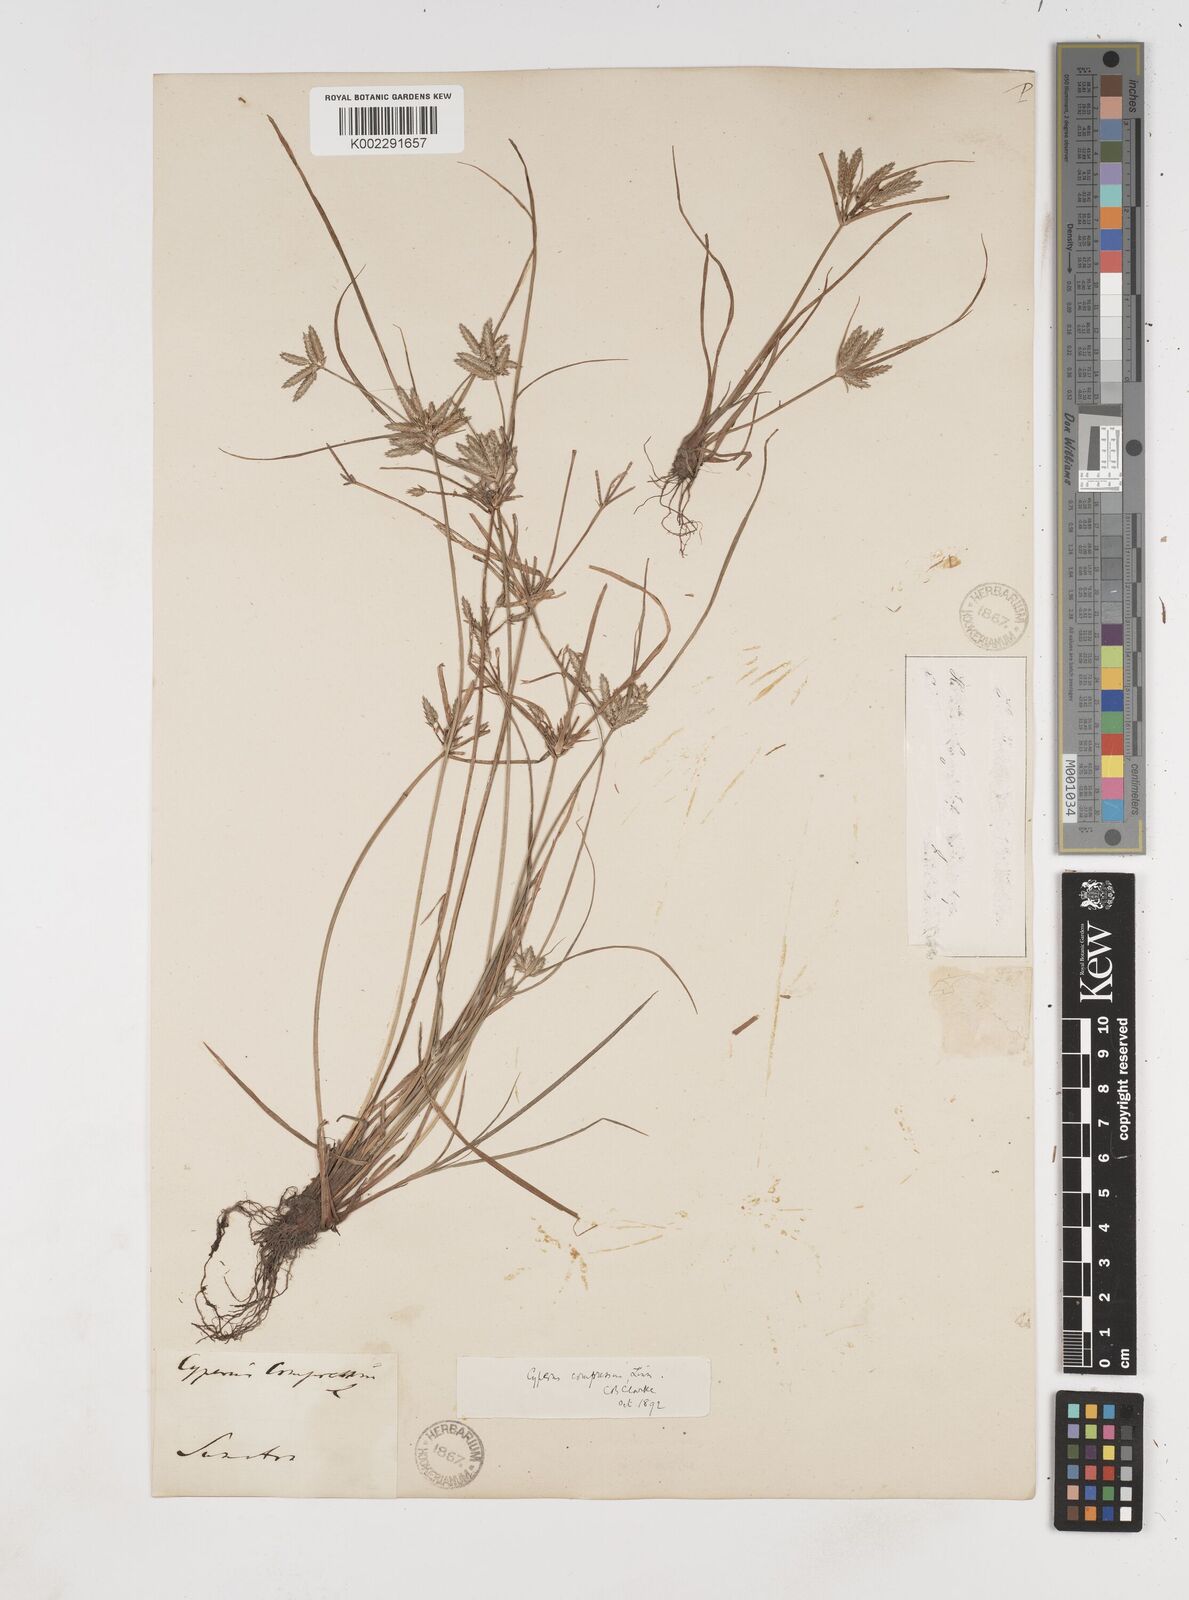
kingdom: Plantae
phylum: Tracheophyta
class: Liliopsida
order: Poales
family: Cyperaceae
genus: Cyperus
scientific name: Cyperus compressus
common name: Poorland flatsedge
